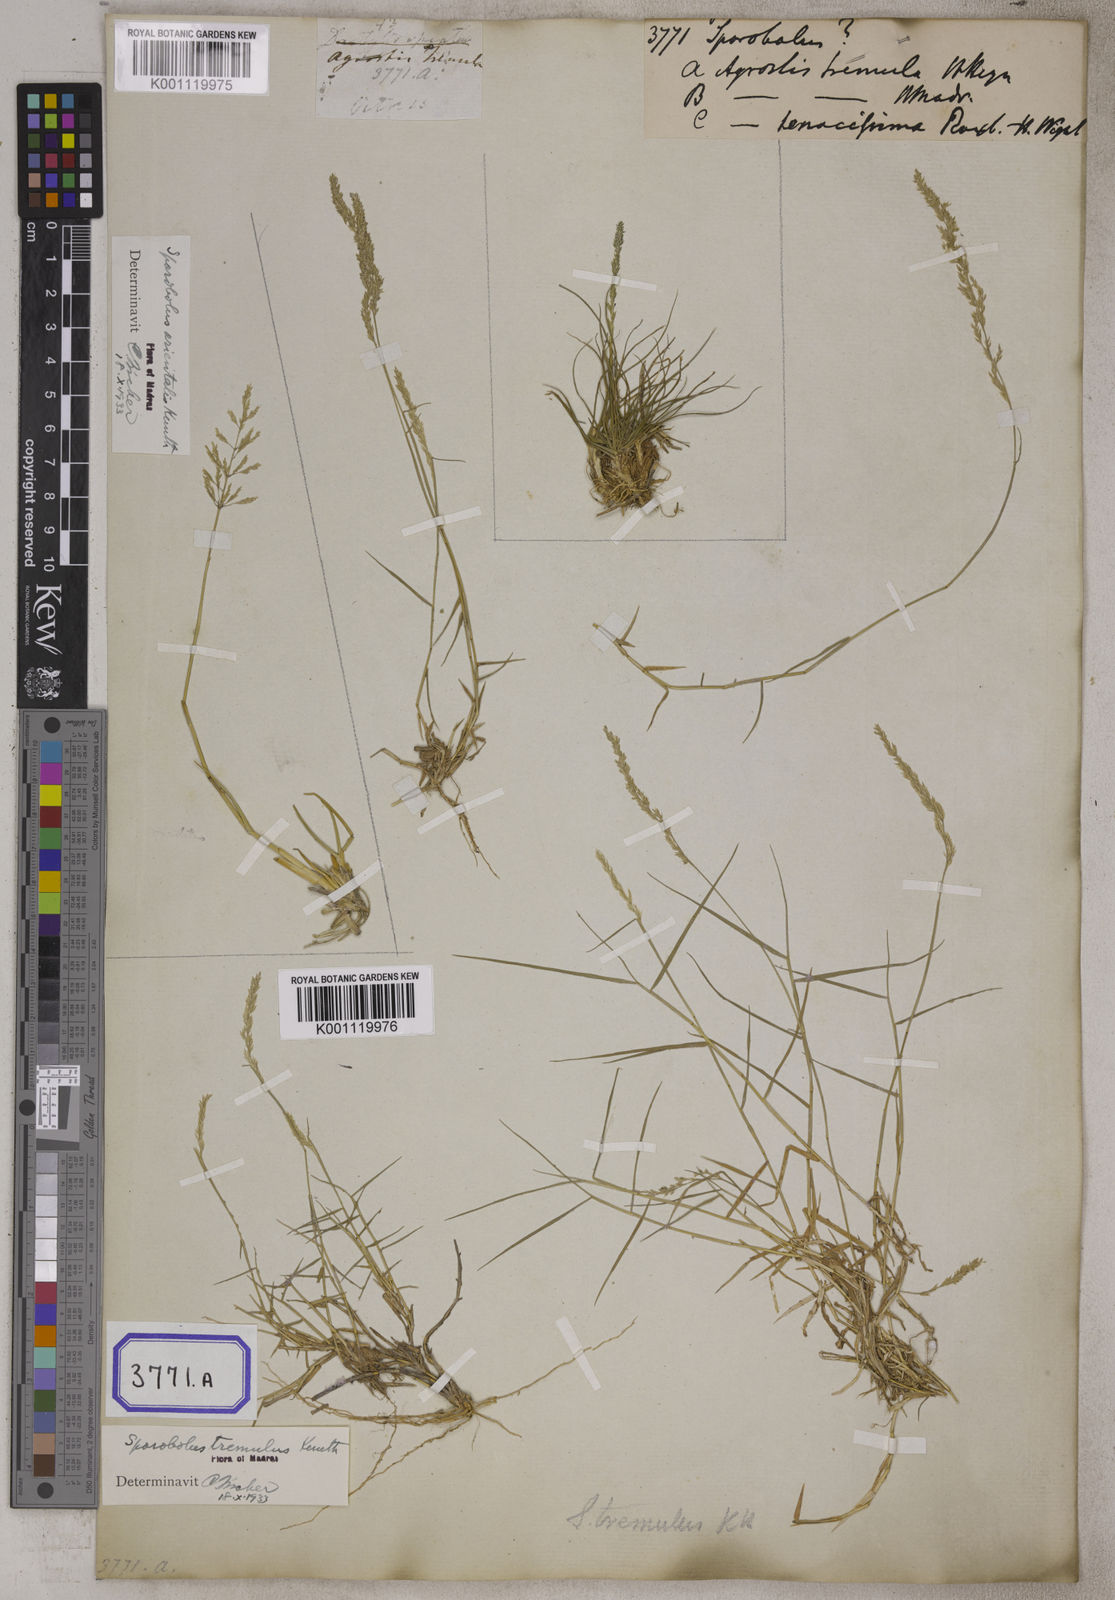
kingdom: Plantae
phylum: Tracheophyta
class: Liliopsida
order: Poales
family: Poaceae
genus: Sporobolus
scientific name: Sporobolus
